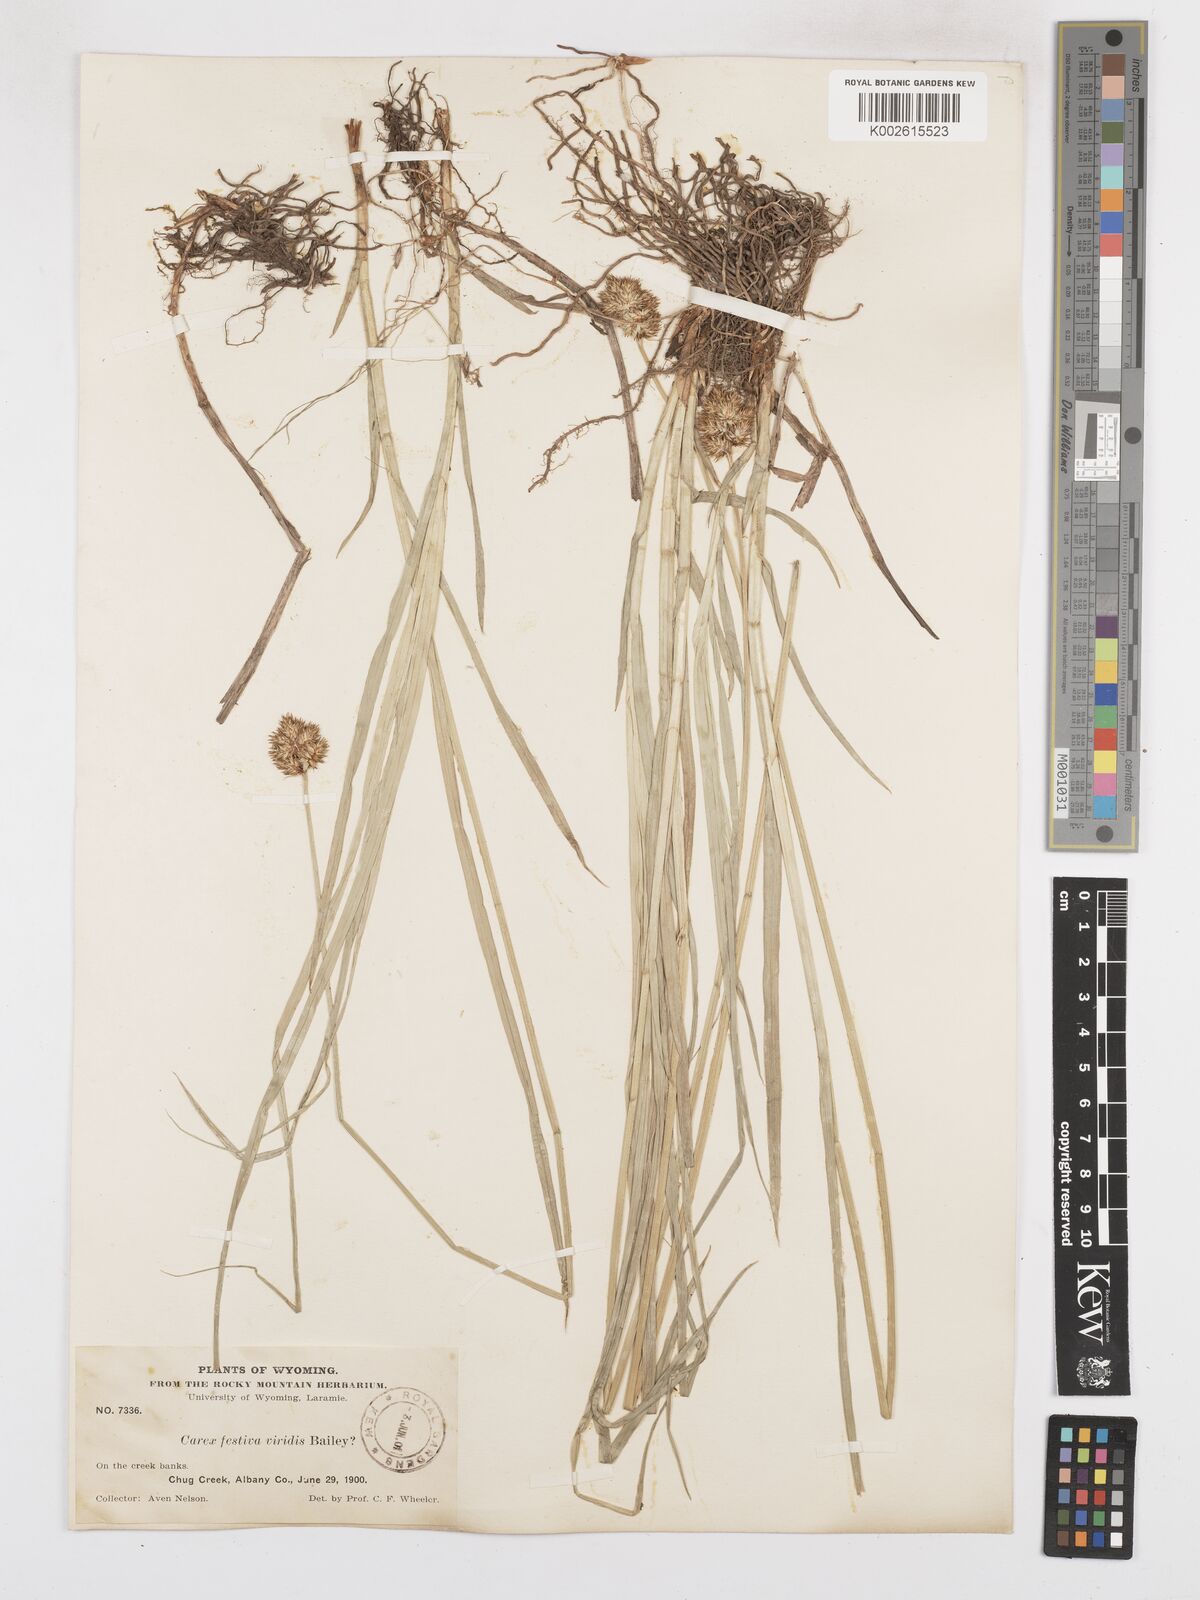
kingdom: Plantae
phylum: Tracheophyta
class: Liliopsida
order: Poales
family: Cyperaceae
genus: Carex
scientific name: Carex macloviana
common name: Falkland island sedge
